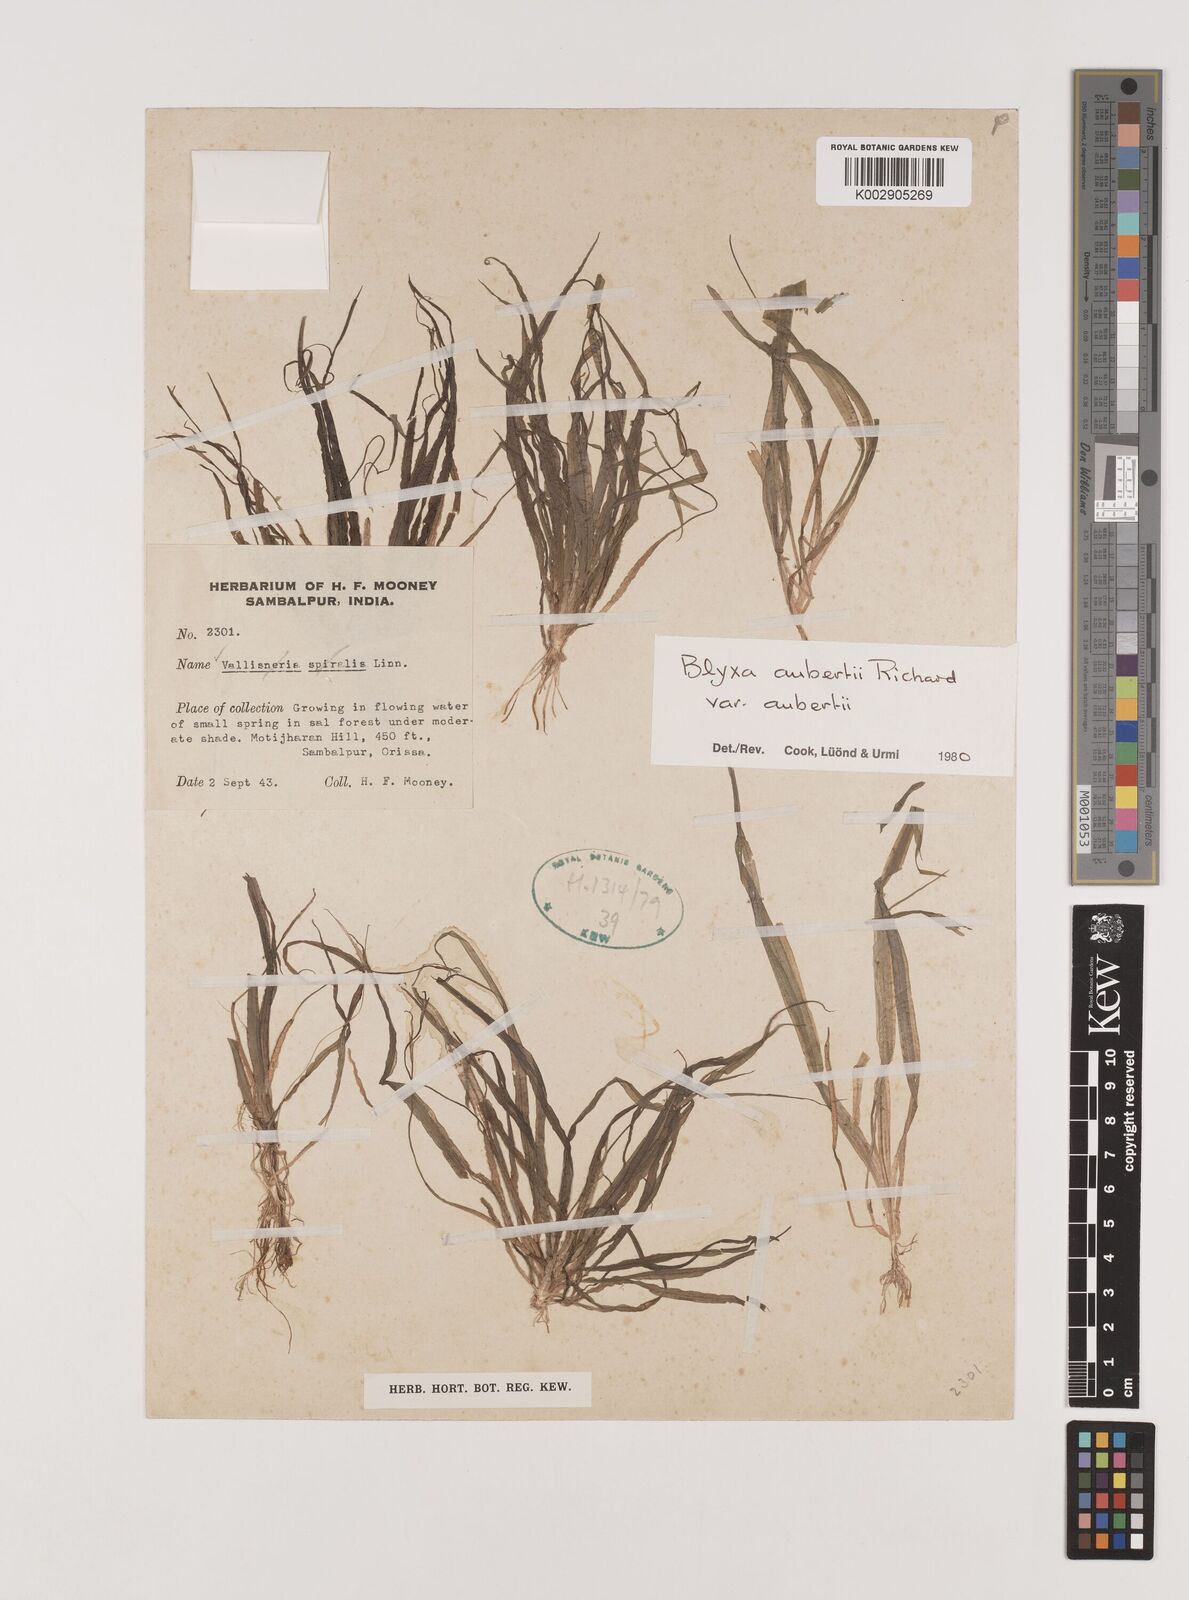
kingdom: Plantae
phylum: Tracheophyta
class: Liliopsida
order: Alismatales
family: Hydrocharitaceae
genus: Blyxa
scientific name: Blyxa aubertii
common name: Roundfruit blyxa
